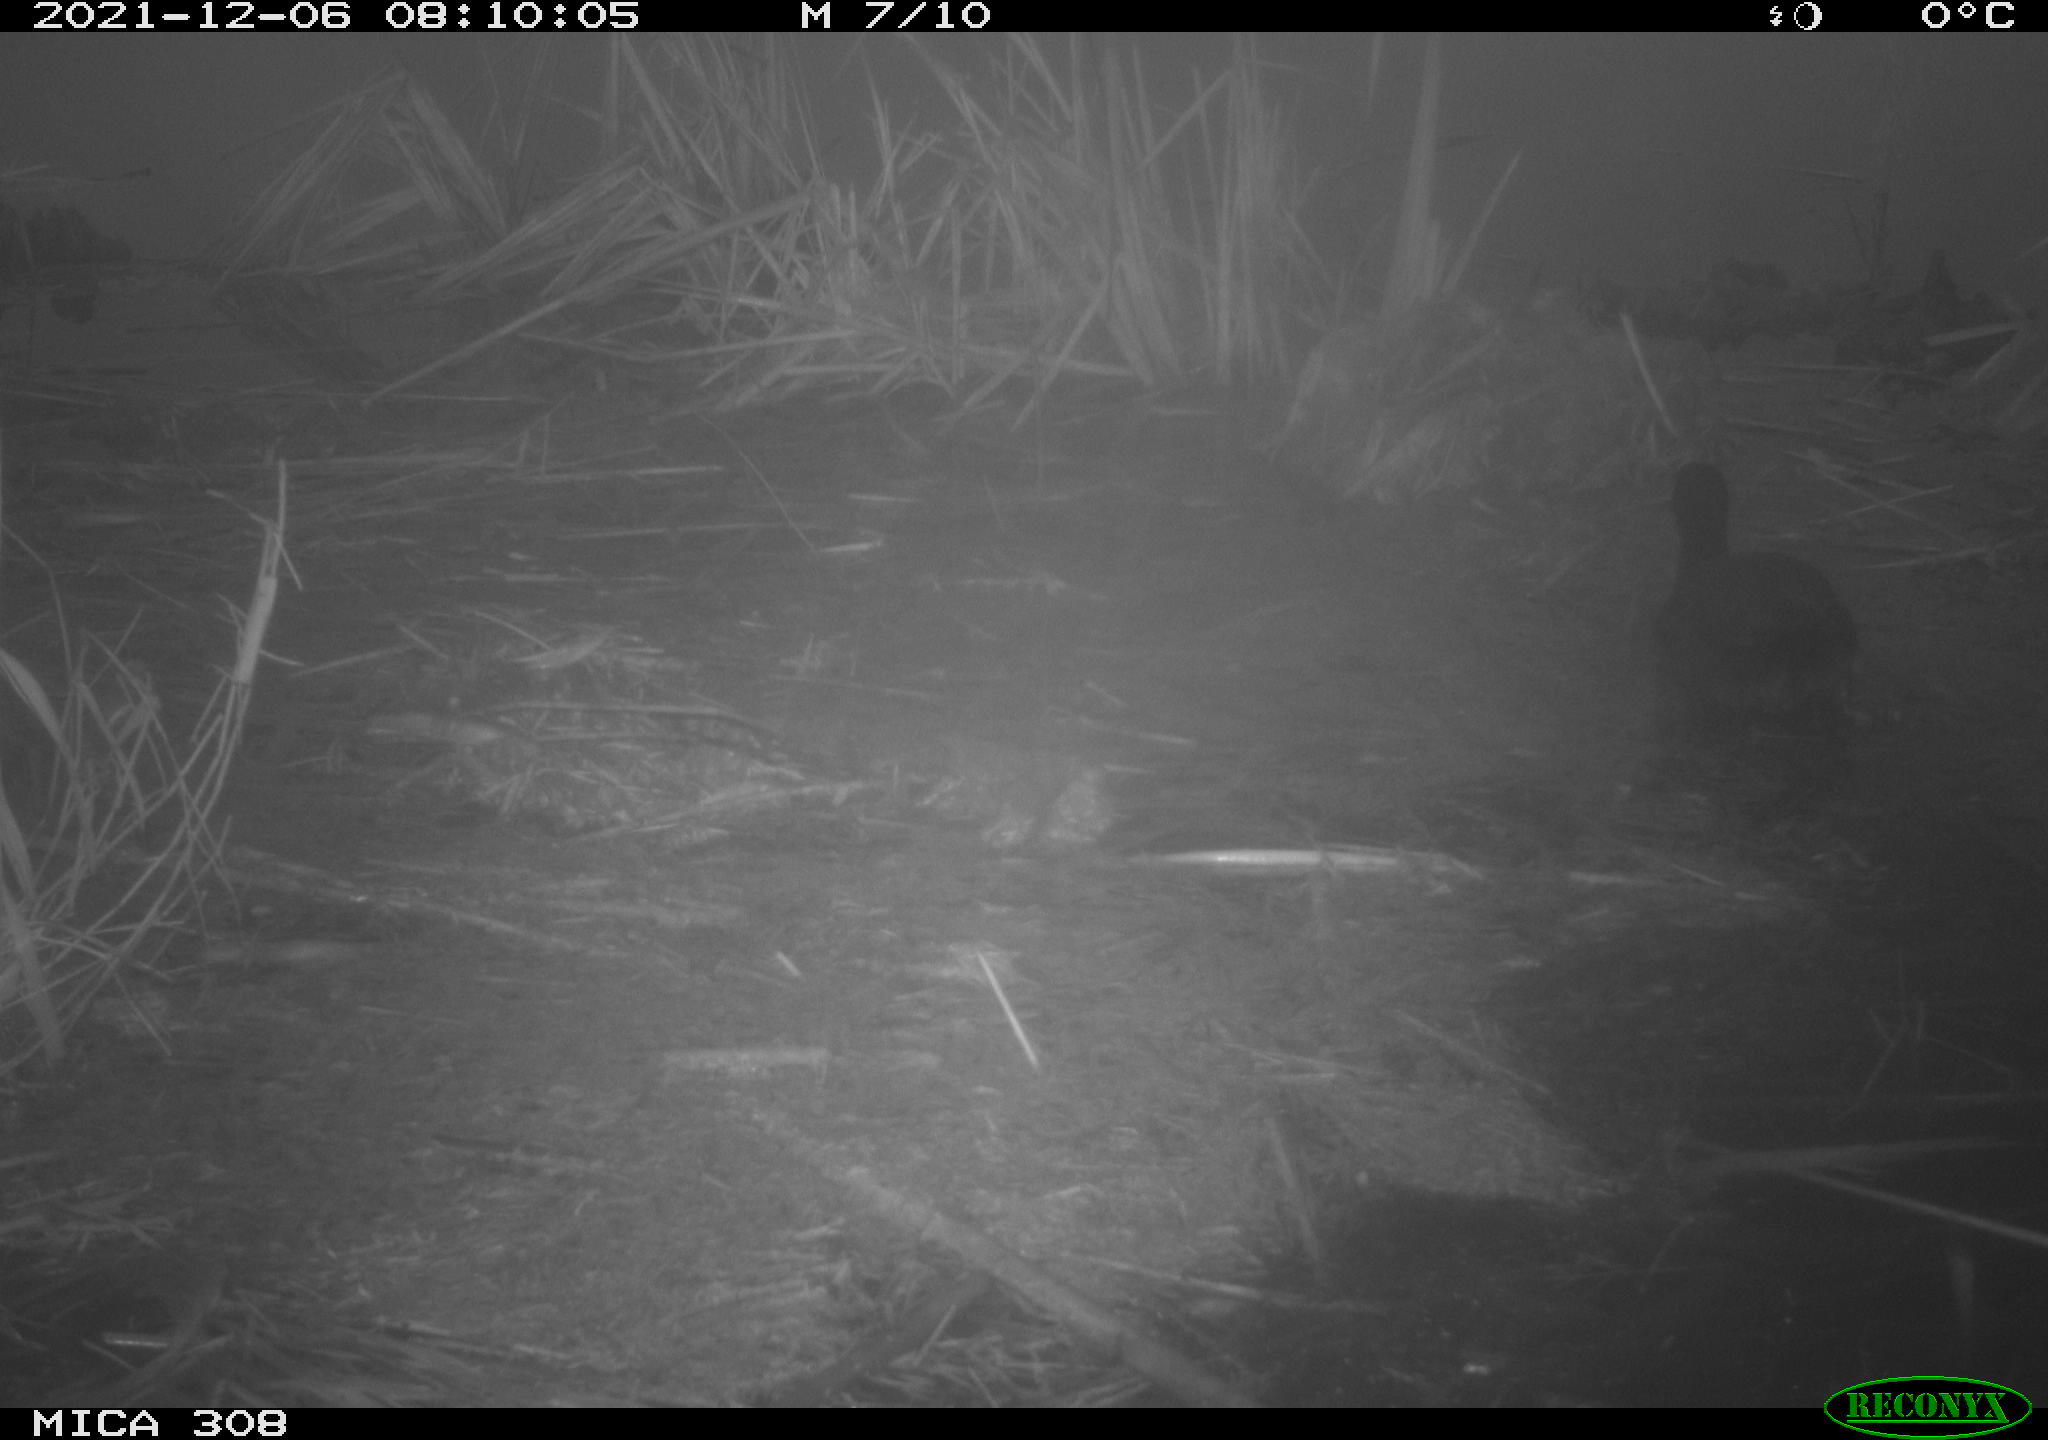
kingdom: Animalia
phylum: Chordata
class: Aves
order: Gruiformes
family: Rallidae
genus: Fulica
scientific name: Fulica atra
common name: Eurasian coot
